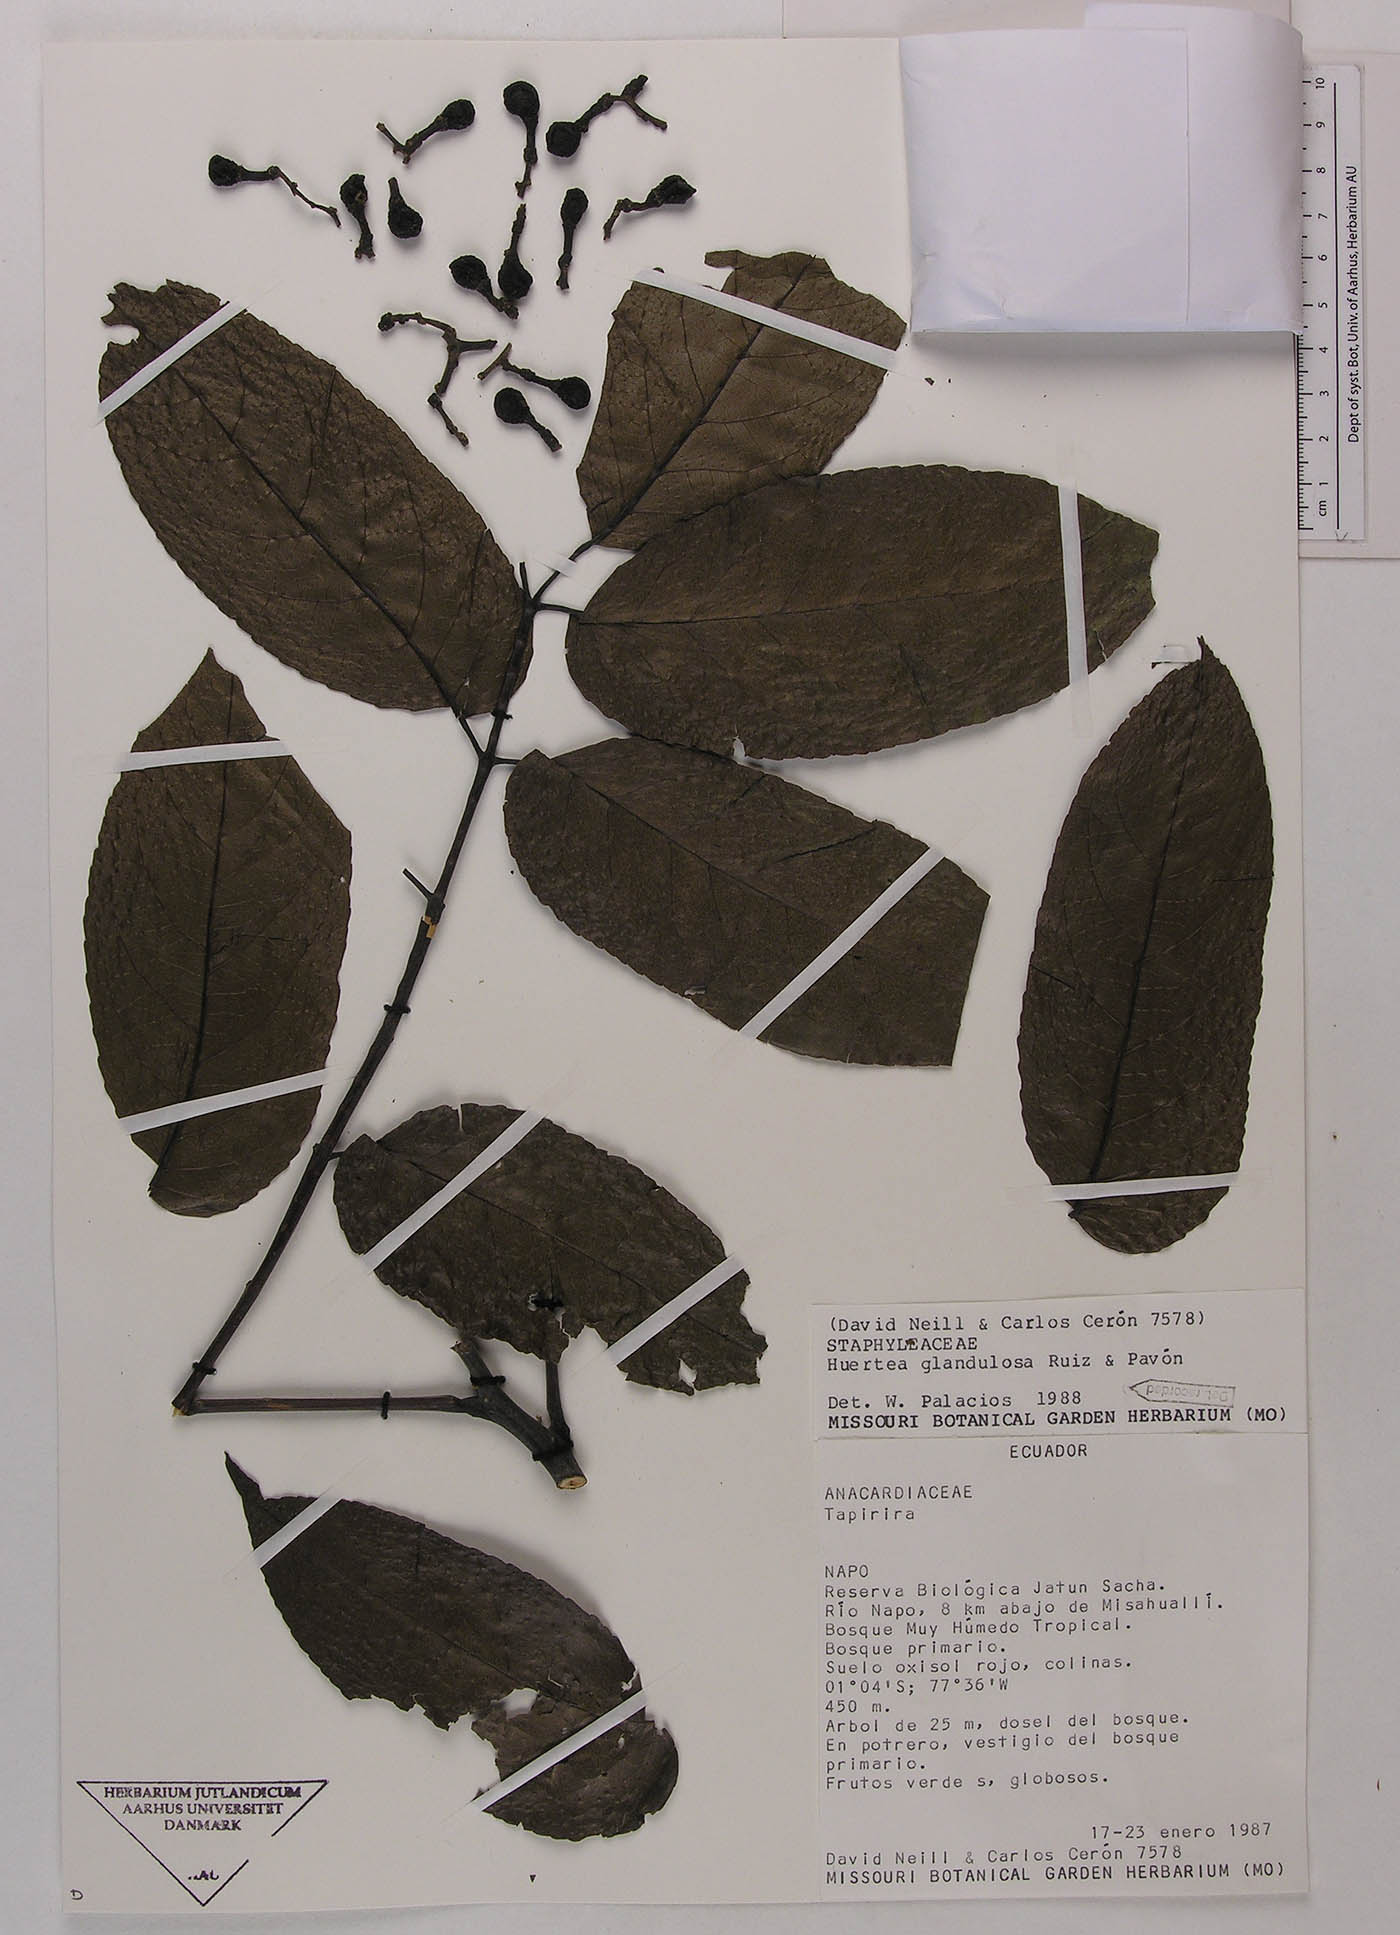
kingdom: Plantae
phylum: Tracheophyta
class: Magnoliopsida
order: Huerteales
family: Tapisciaceae
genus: Huertea
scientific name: Huertea glandulosa
